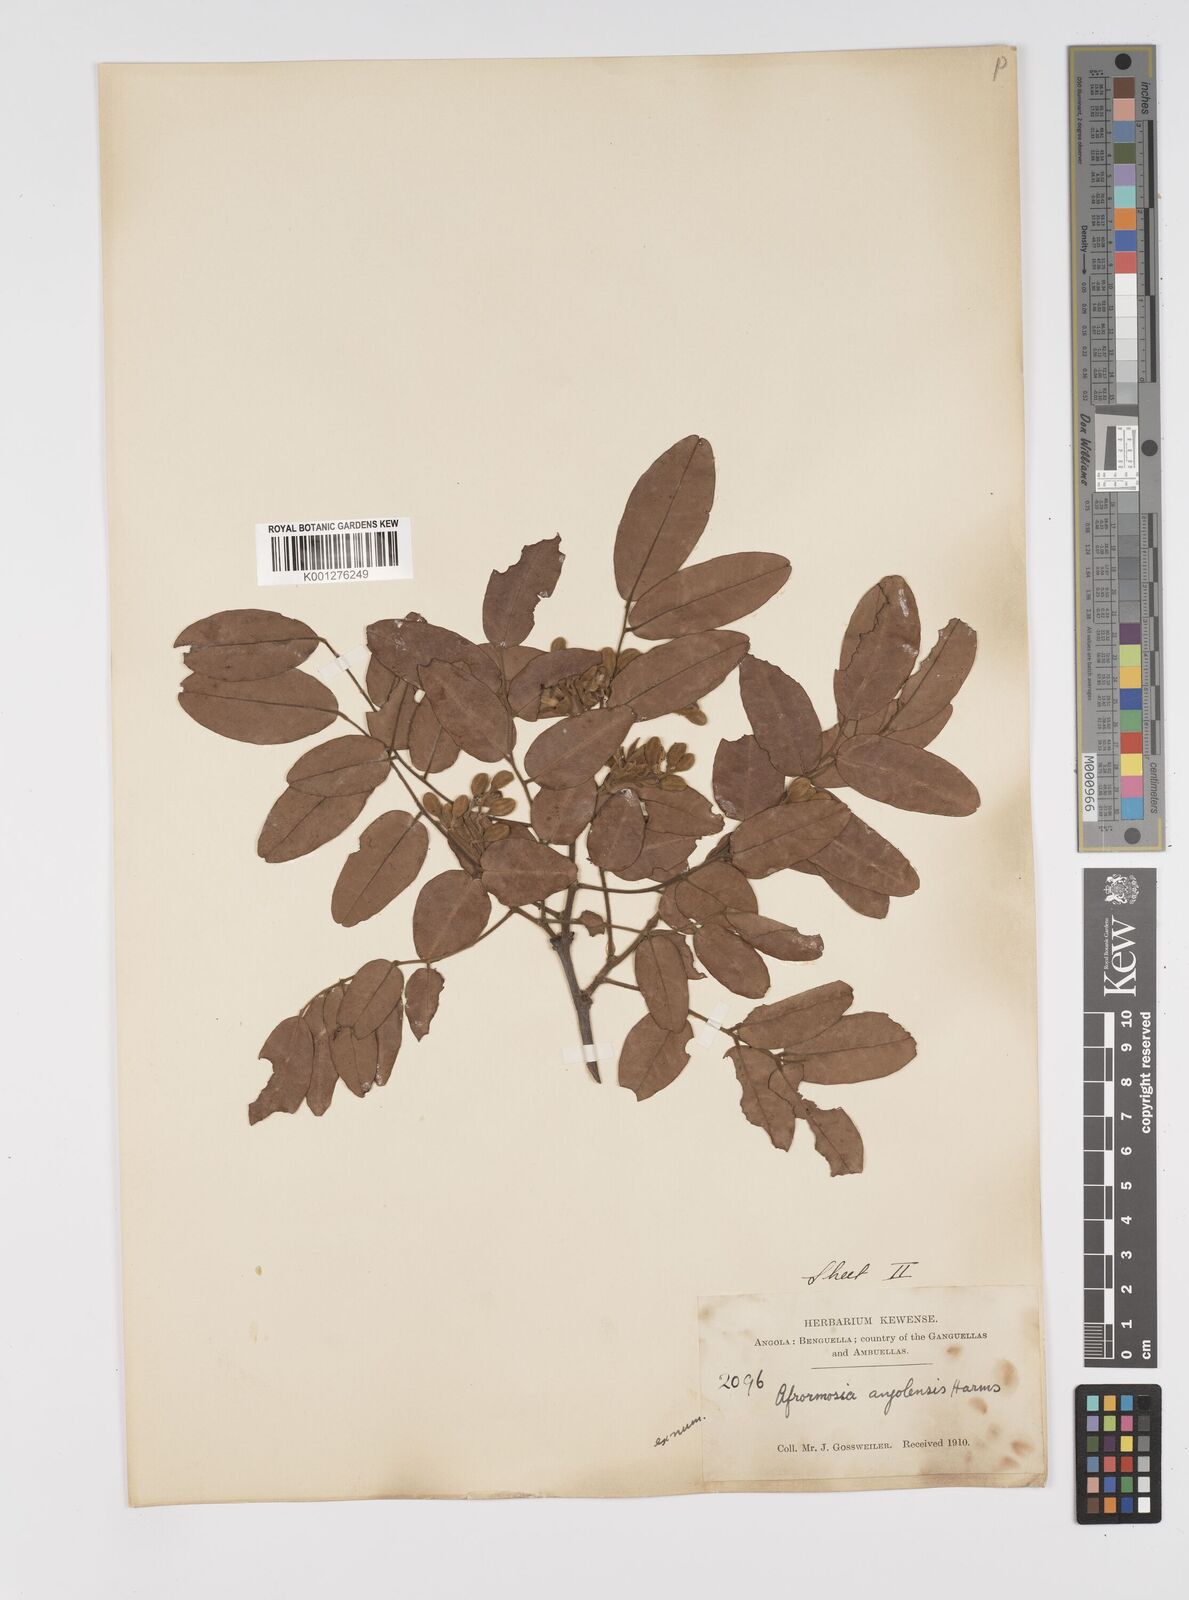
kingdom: Plantae
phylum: Tracheophyta
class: Magnoliopsida
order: Fabales
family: Fabaceae
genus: Pericopsis
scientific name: Pericopsis angolensis
